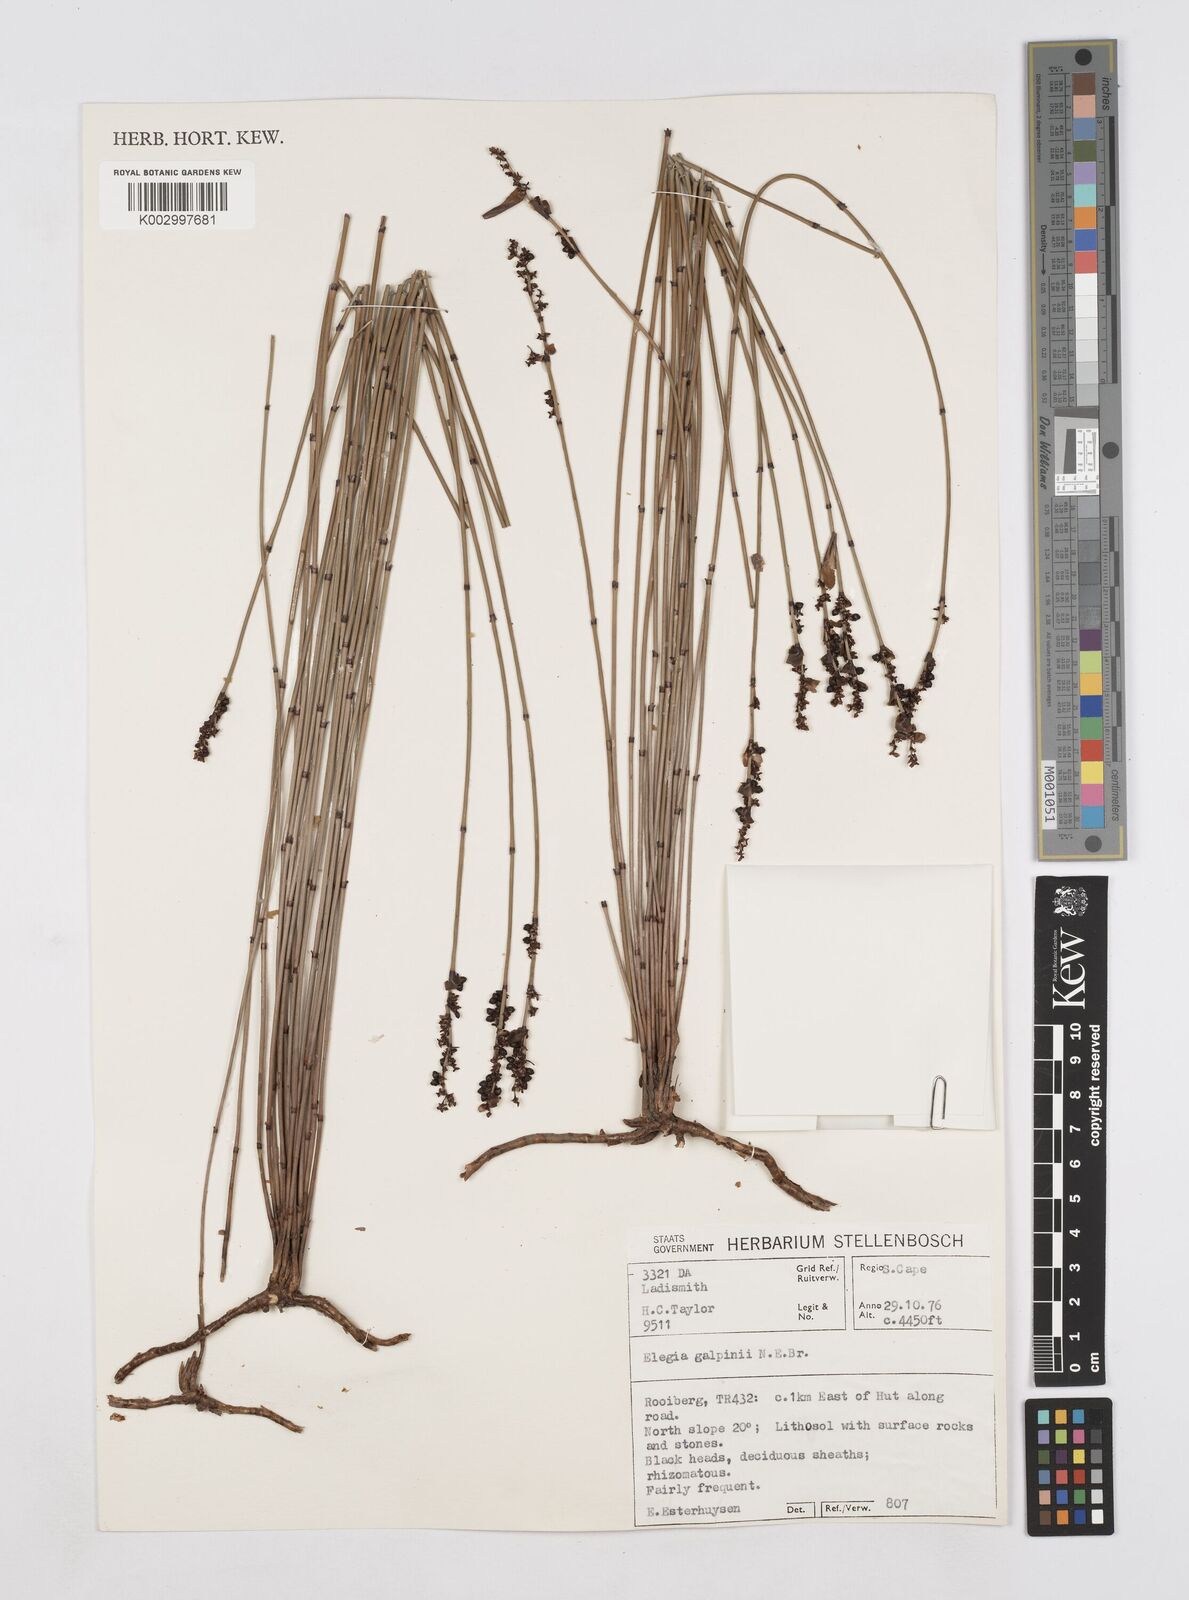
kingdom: Plantae
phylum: Tracheophyta
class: Liliopsida
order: Poales
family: Restionaceae
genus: Elegia
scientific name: Elegia galpinii
